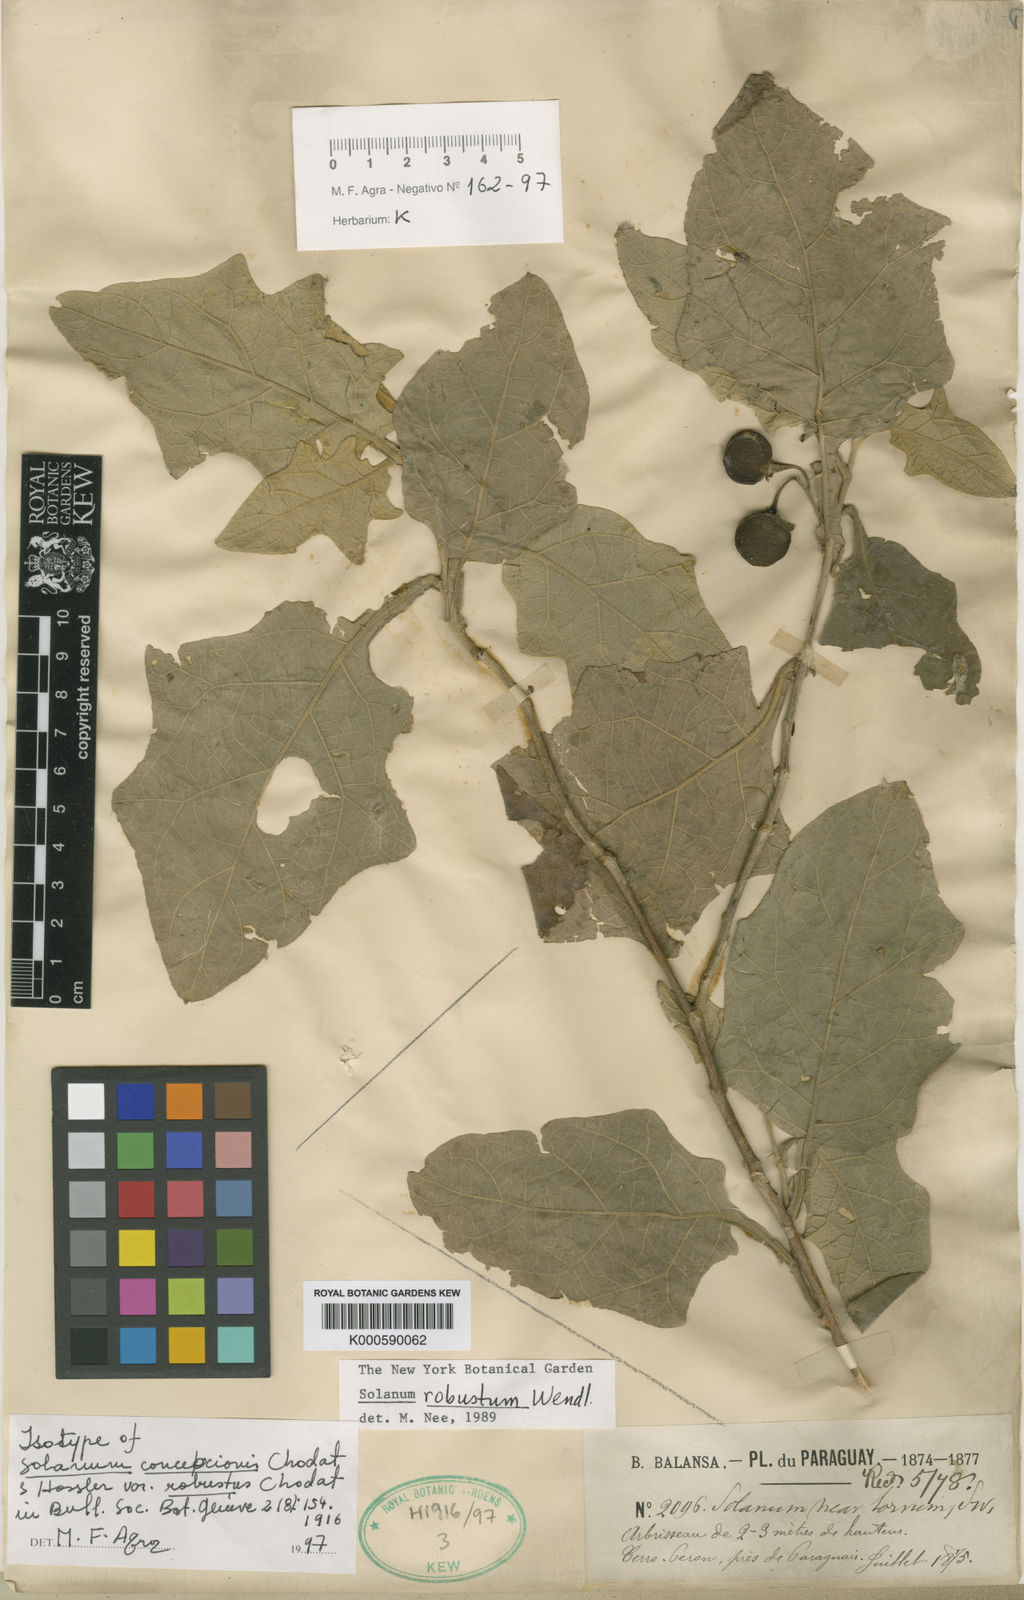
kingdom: Plantae
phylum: Tracheophyta
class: Magnoliopsida
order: Solanales
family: Solanaceae
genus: Solanum
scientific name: Solanum robustum
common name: Shrubby nightshade
